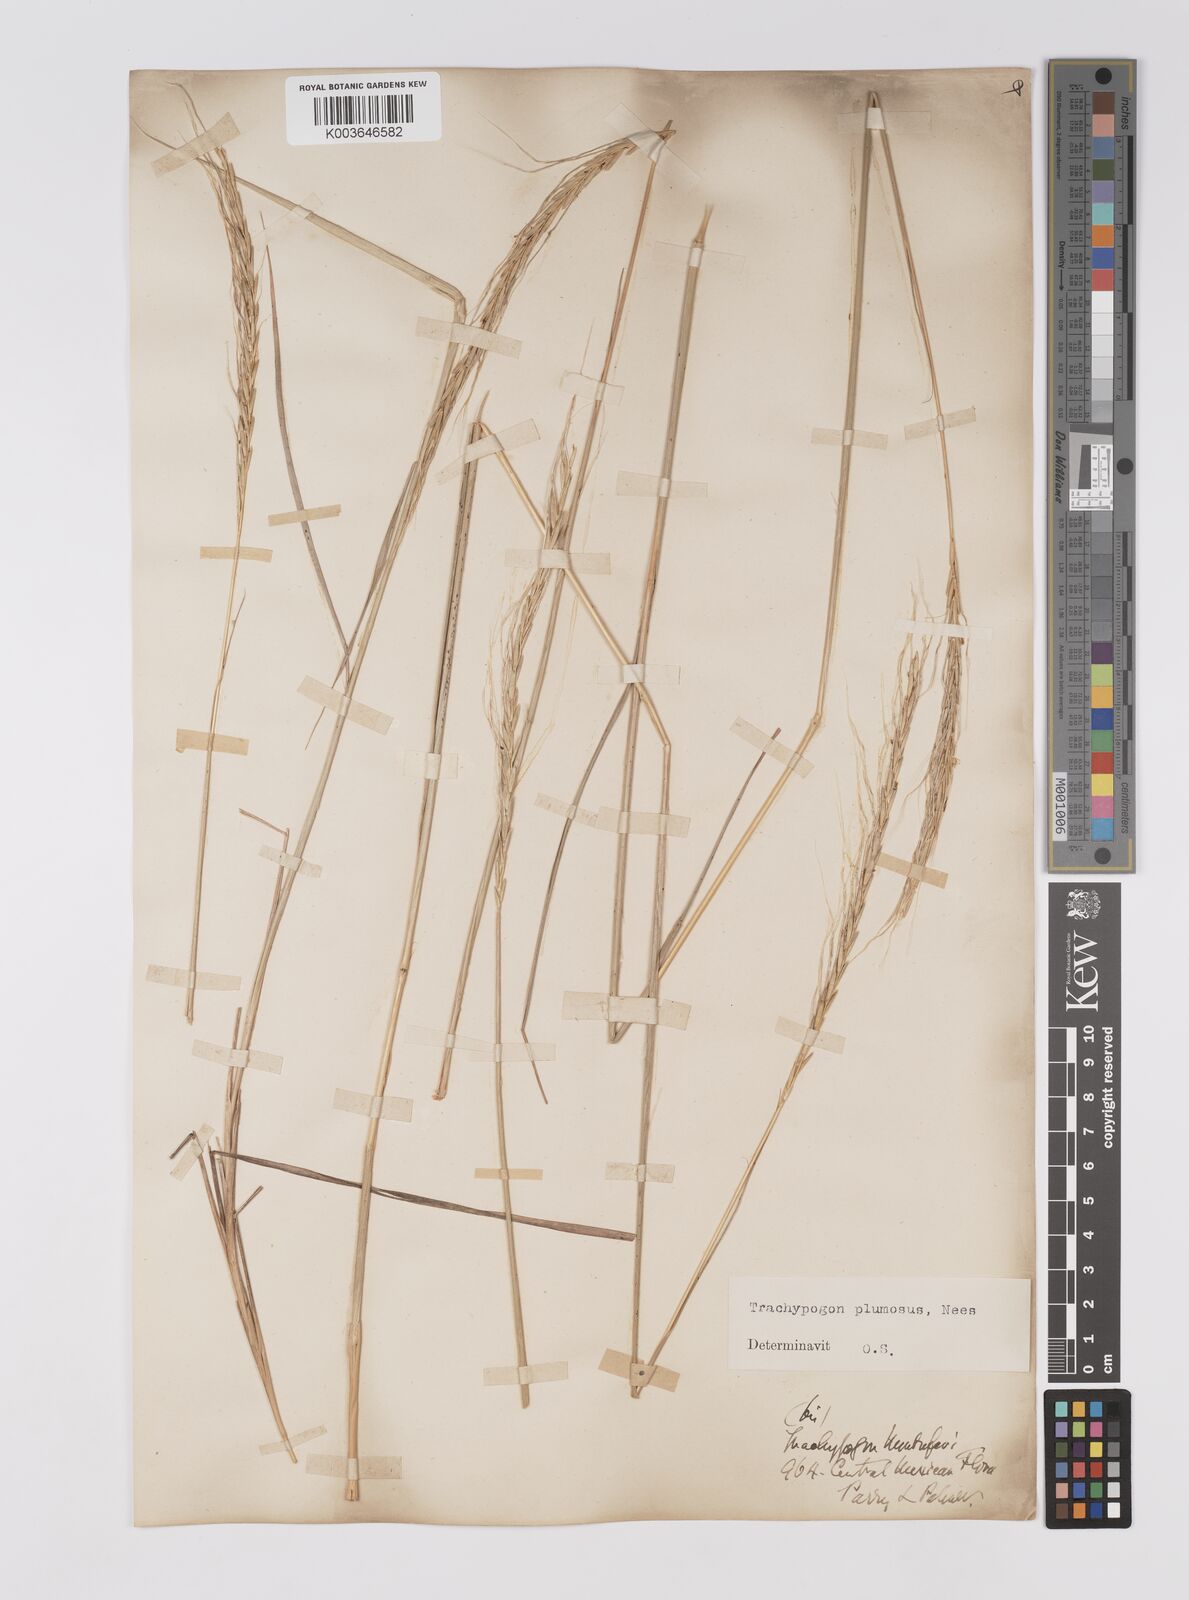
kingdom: Plantae
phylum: Tracheophyta
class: Liliopsida
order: Poales
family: Poaceae
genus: Trachypogon
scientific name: Trachypogon spicatus
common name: Crinkle-awn
